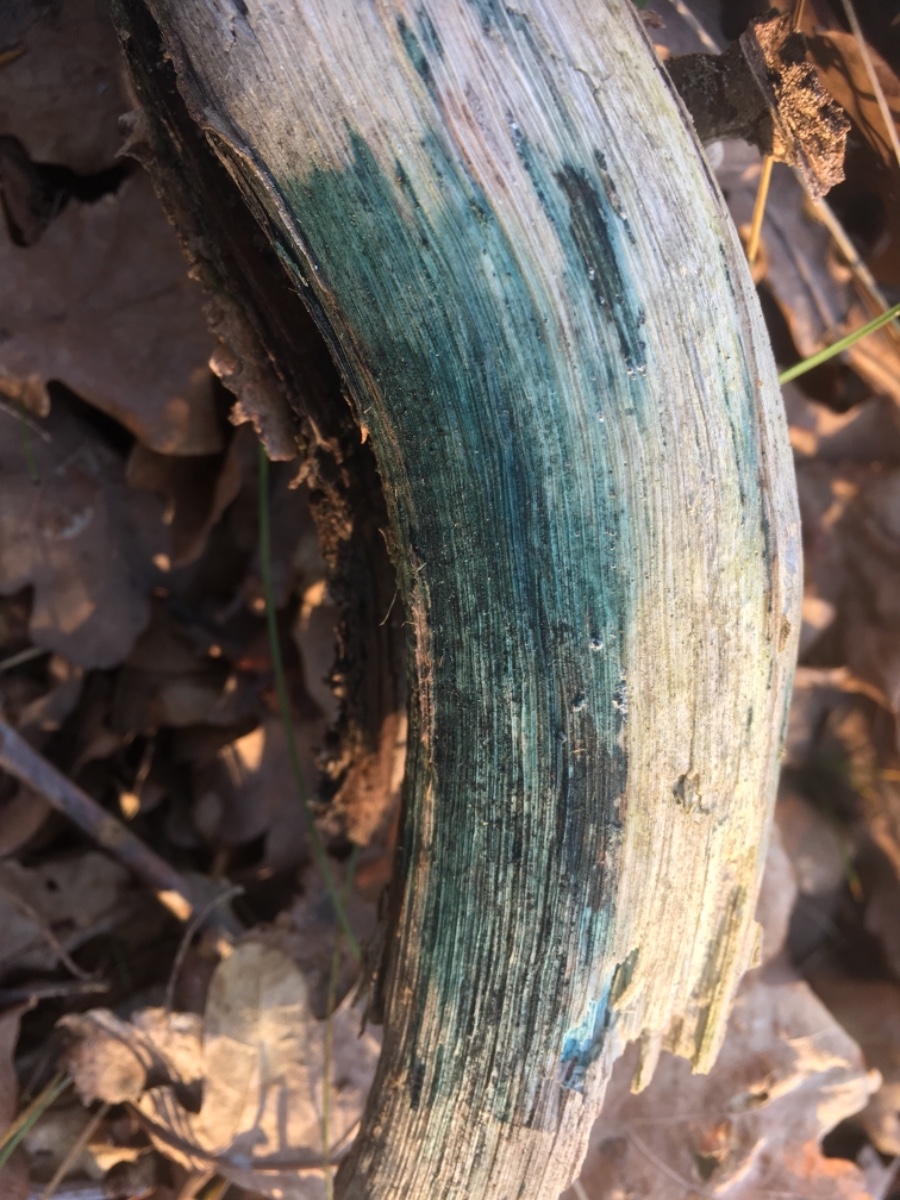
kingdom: Fungi
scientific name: Fungi
